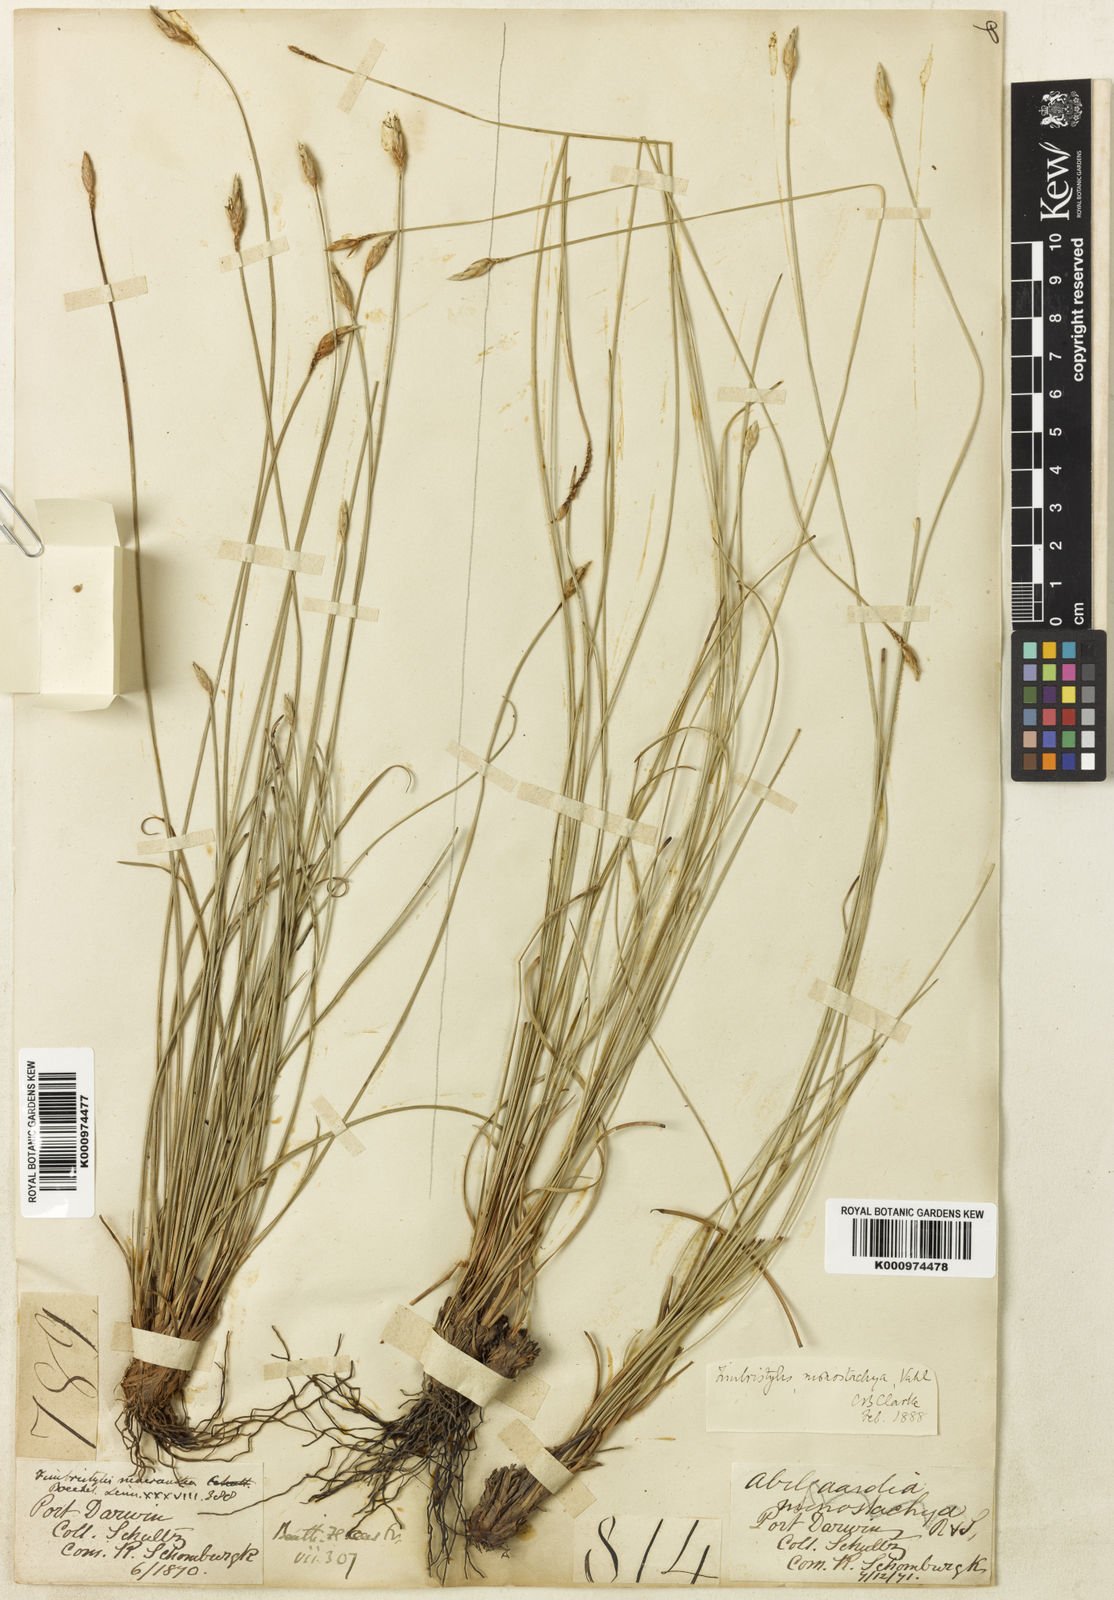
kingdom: Plantae
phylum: Tracheophyta
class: Liliopsida
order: Poales
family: Cyperaceae
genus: Abildgaardia
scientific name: Abildgaardia ovata
